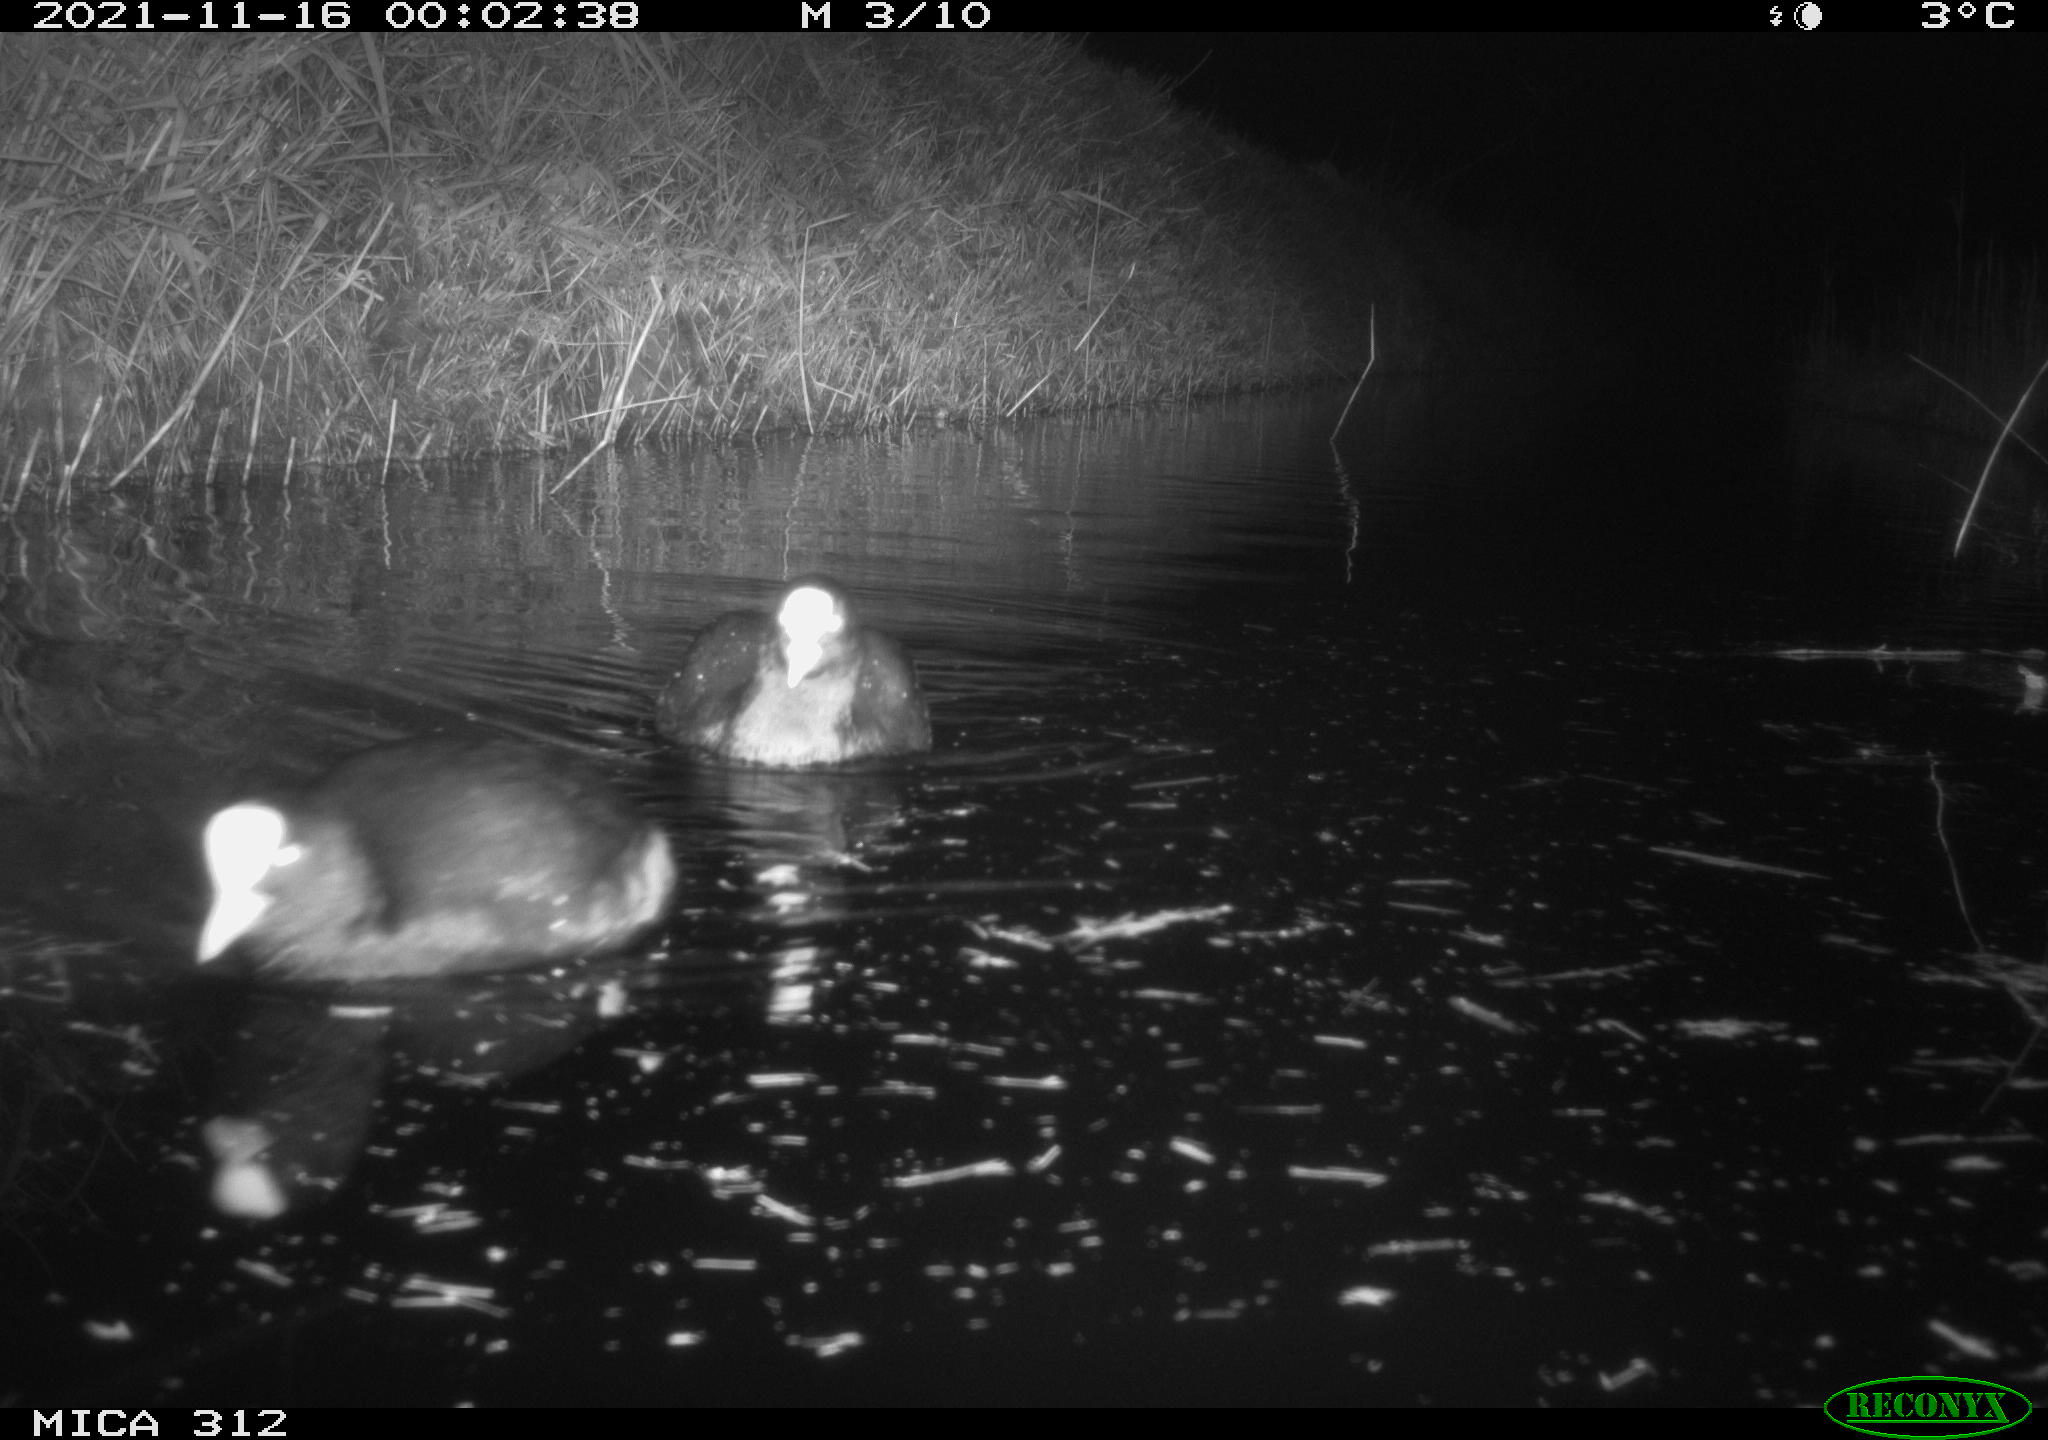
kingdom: Animalia
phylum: Chordata
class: Aves
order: Gruiformes
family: Rallidae
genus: Fulica
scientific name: Fulica atra
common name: Eurasian coot
